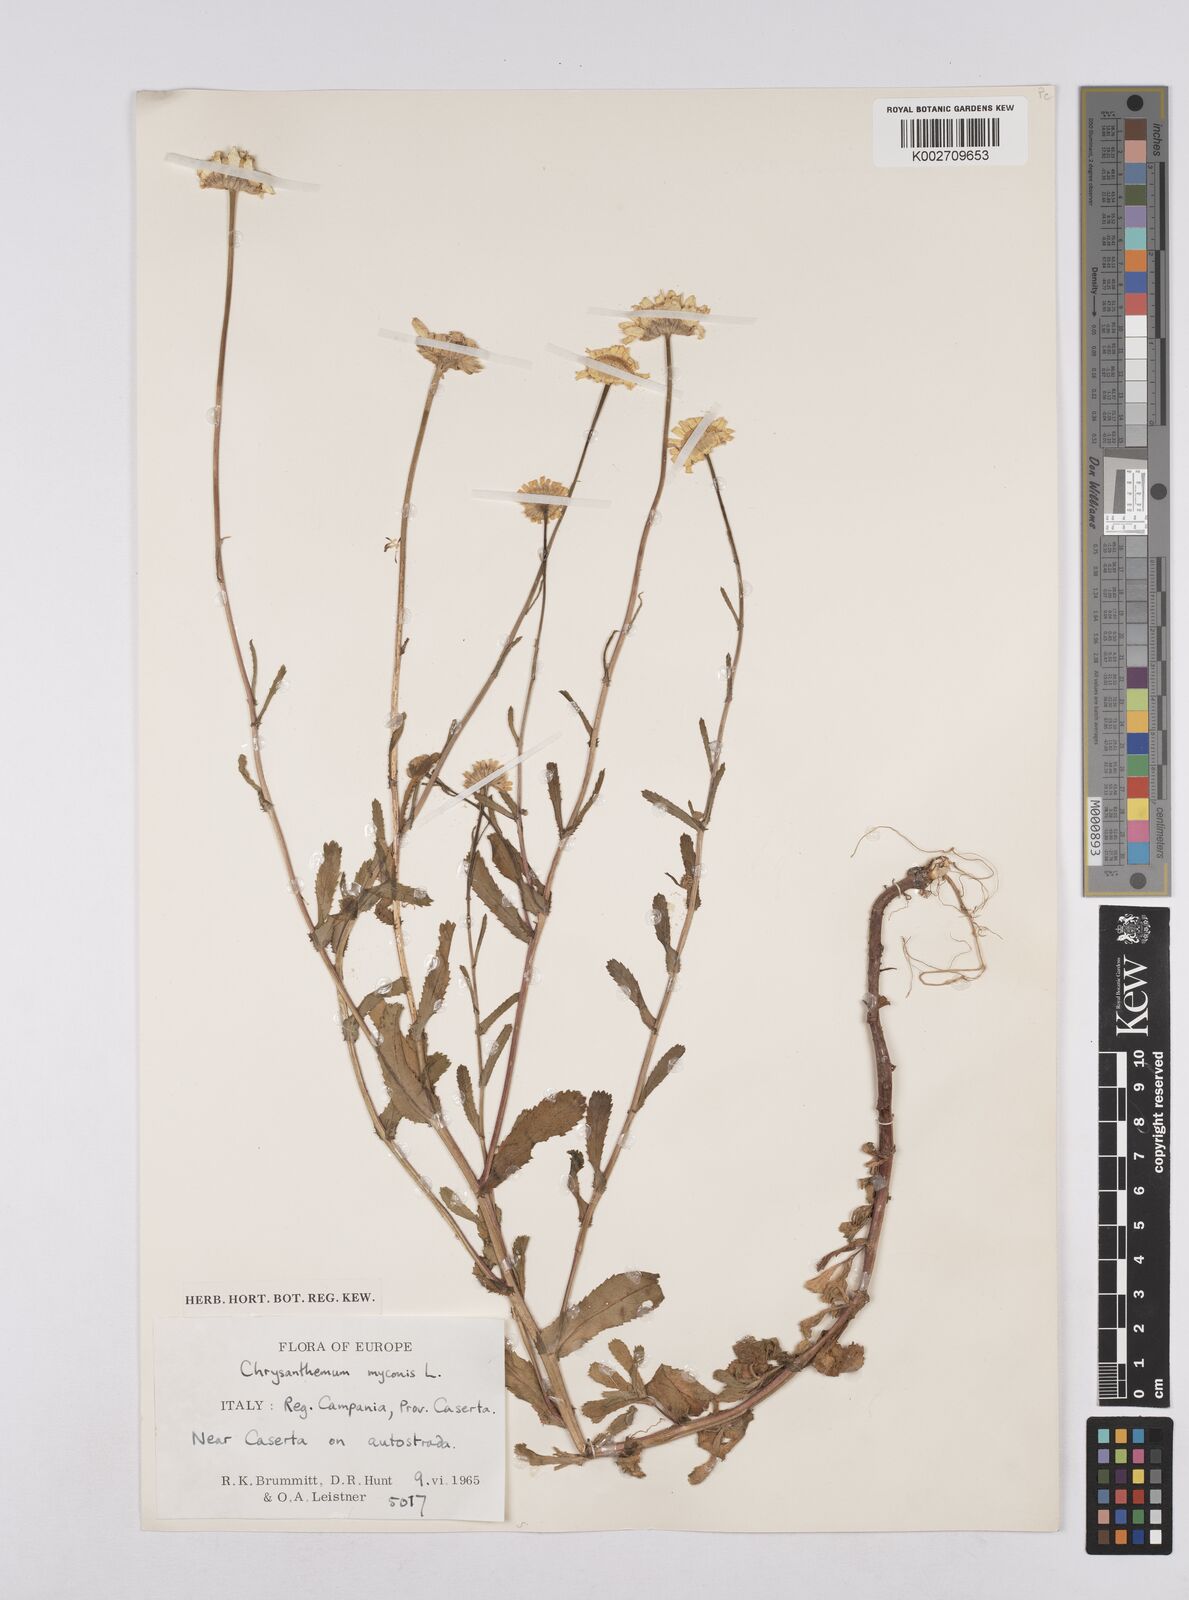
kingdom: Plantae
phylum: Tracheophyta
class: Magnoliopsida
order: Asterales
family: Asteraceae
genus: Coleostephus
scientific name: Coleostephus myconis
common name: Mediterranean marigold
